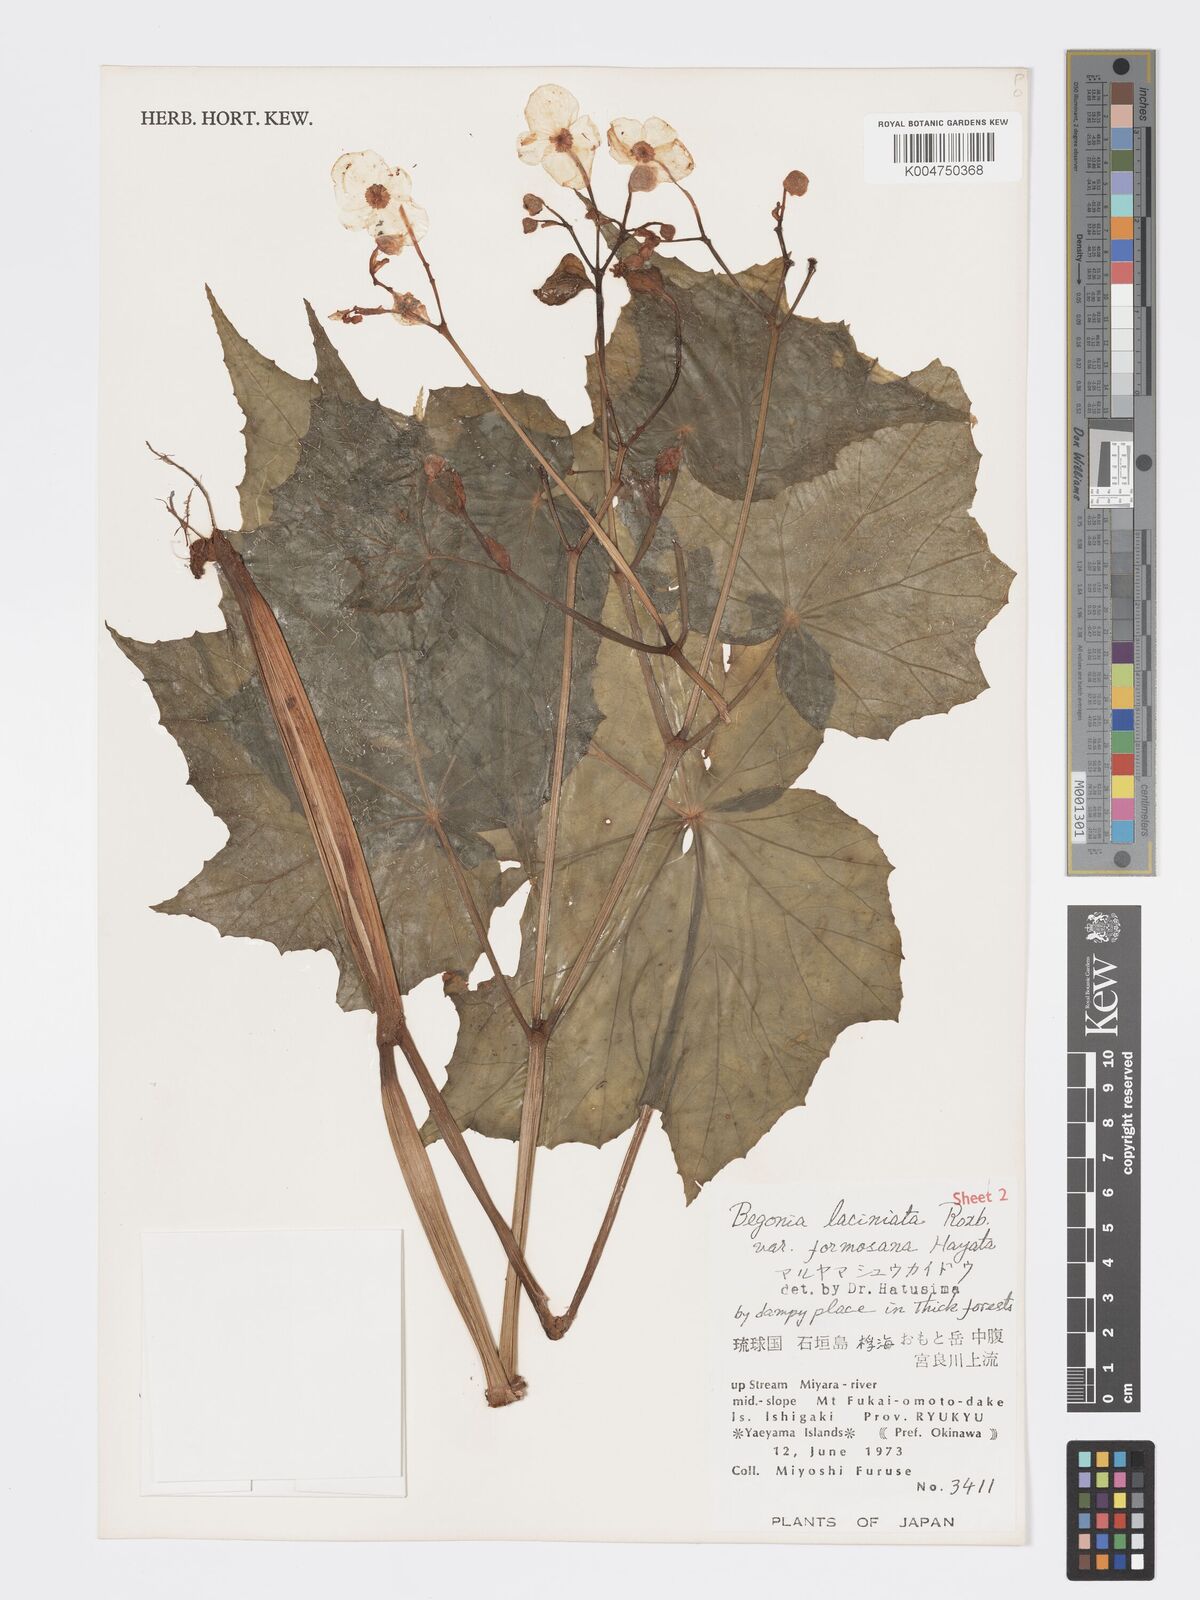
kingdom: Plantae
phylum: Tracheophyta
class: Magnoliopsida
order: Cucurbitales
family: Begoniaceae
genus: Begonia
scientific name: Begonia palmata
